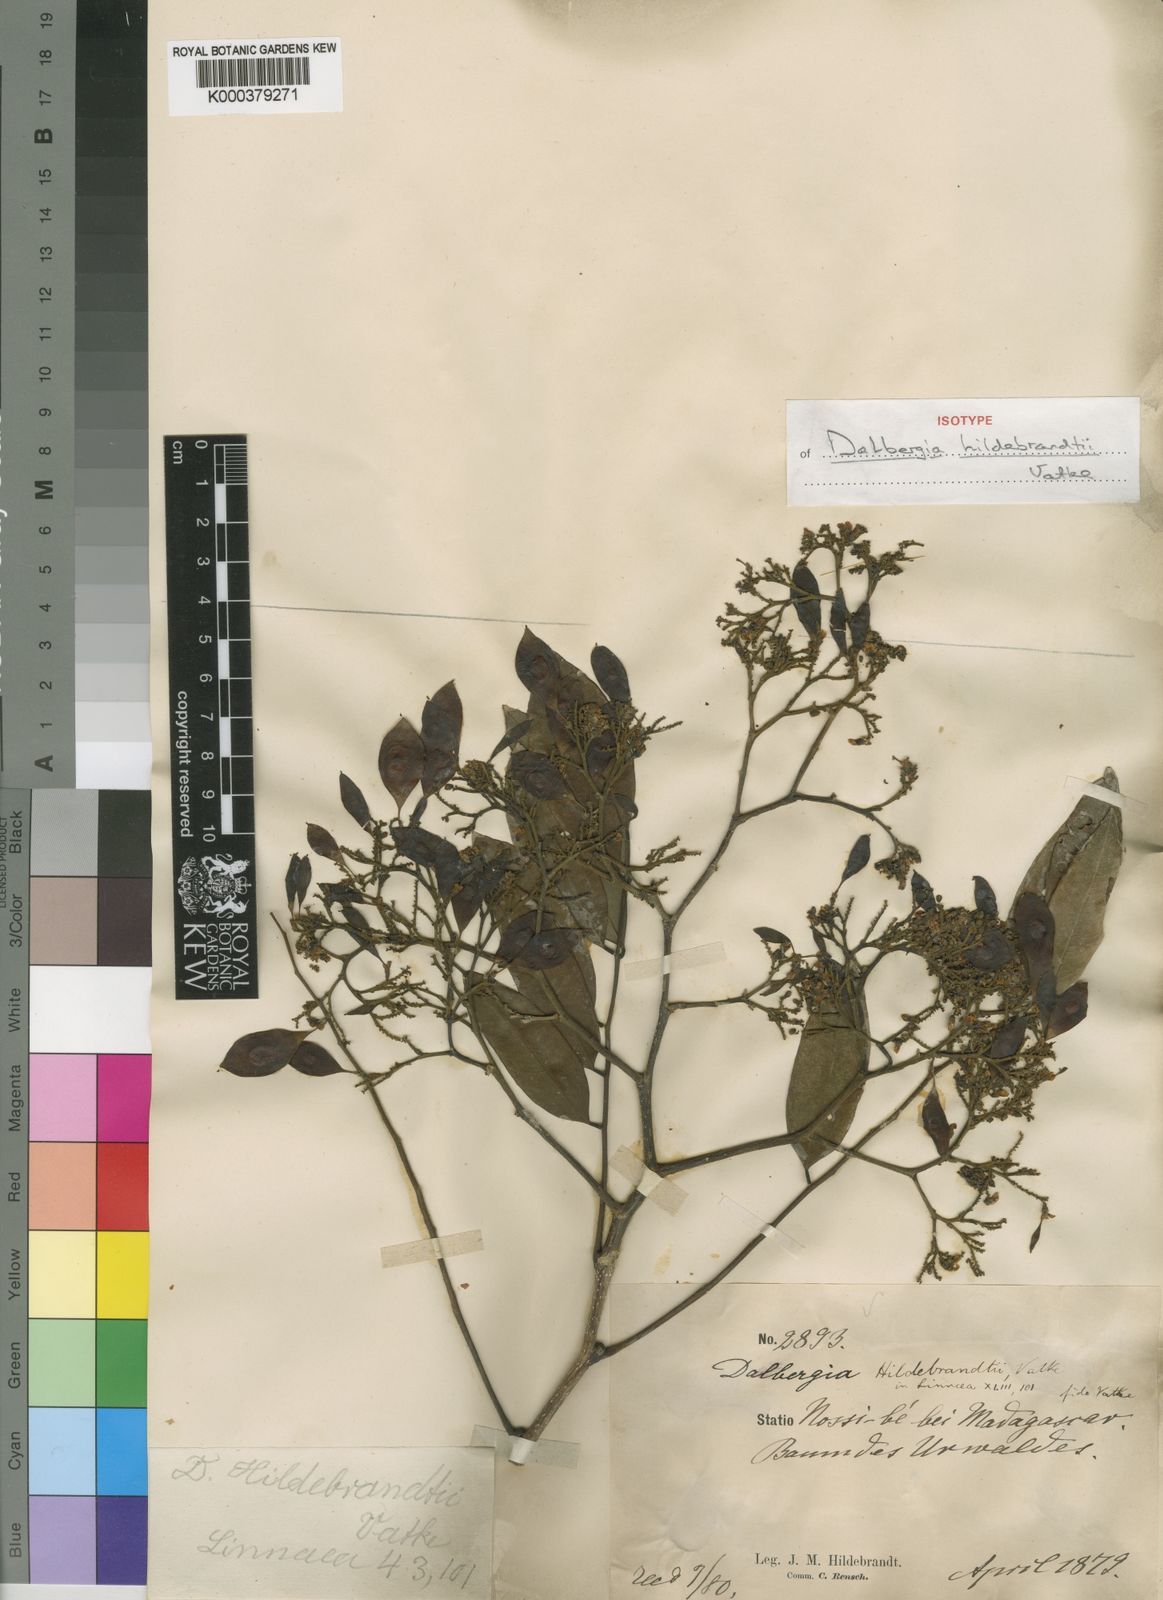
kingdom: Plantae
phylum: Tracheophyta
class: Magnoliopsida
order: Fabales
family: Fabaceae
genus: Dalbergia
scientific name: Dalbergia hildebrandtii
